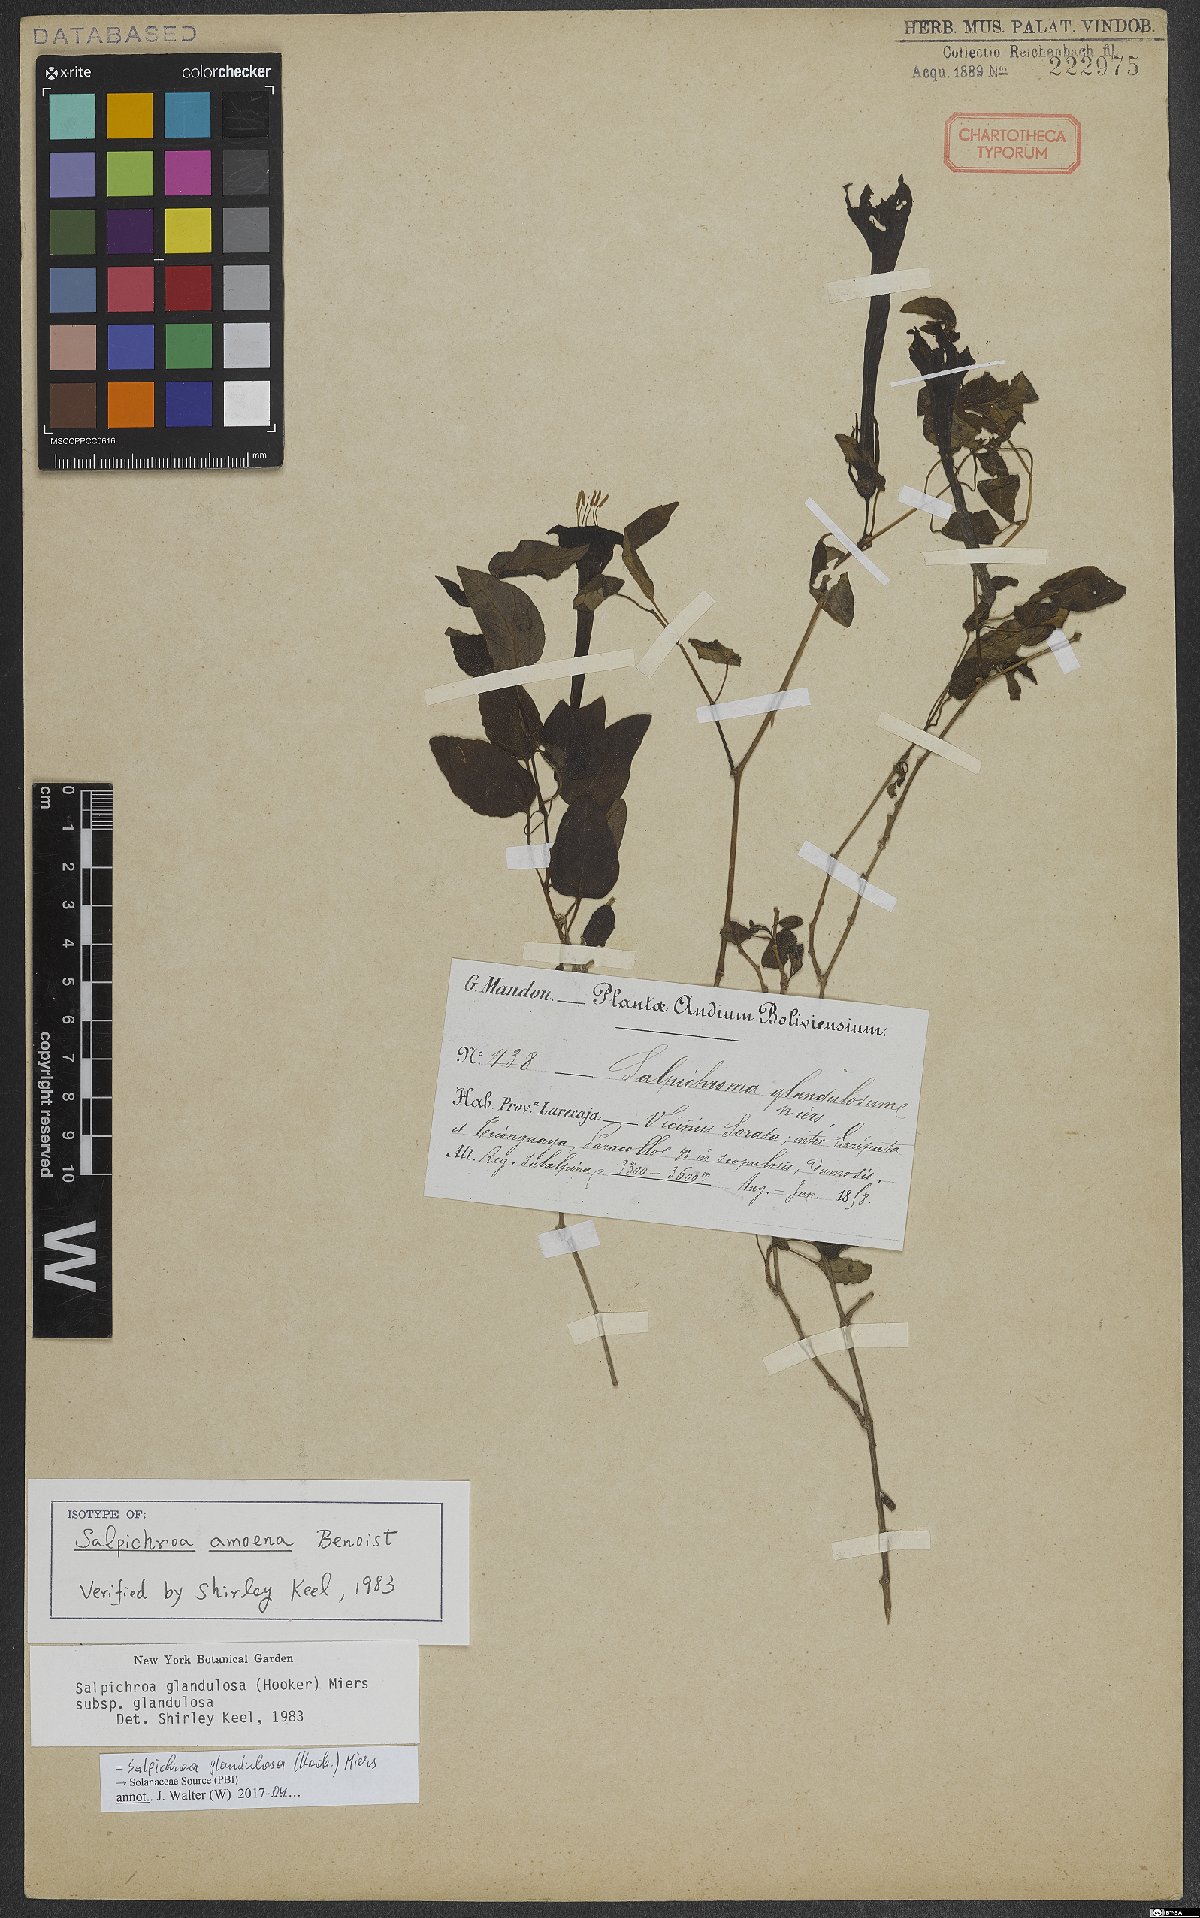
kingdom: Plantae
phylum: Tracheophyta
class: Magnoliopsida
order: Solanales
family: Solanaceae
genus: Salpichroa
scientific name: Salpichroa glandulosa
